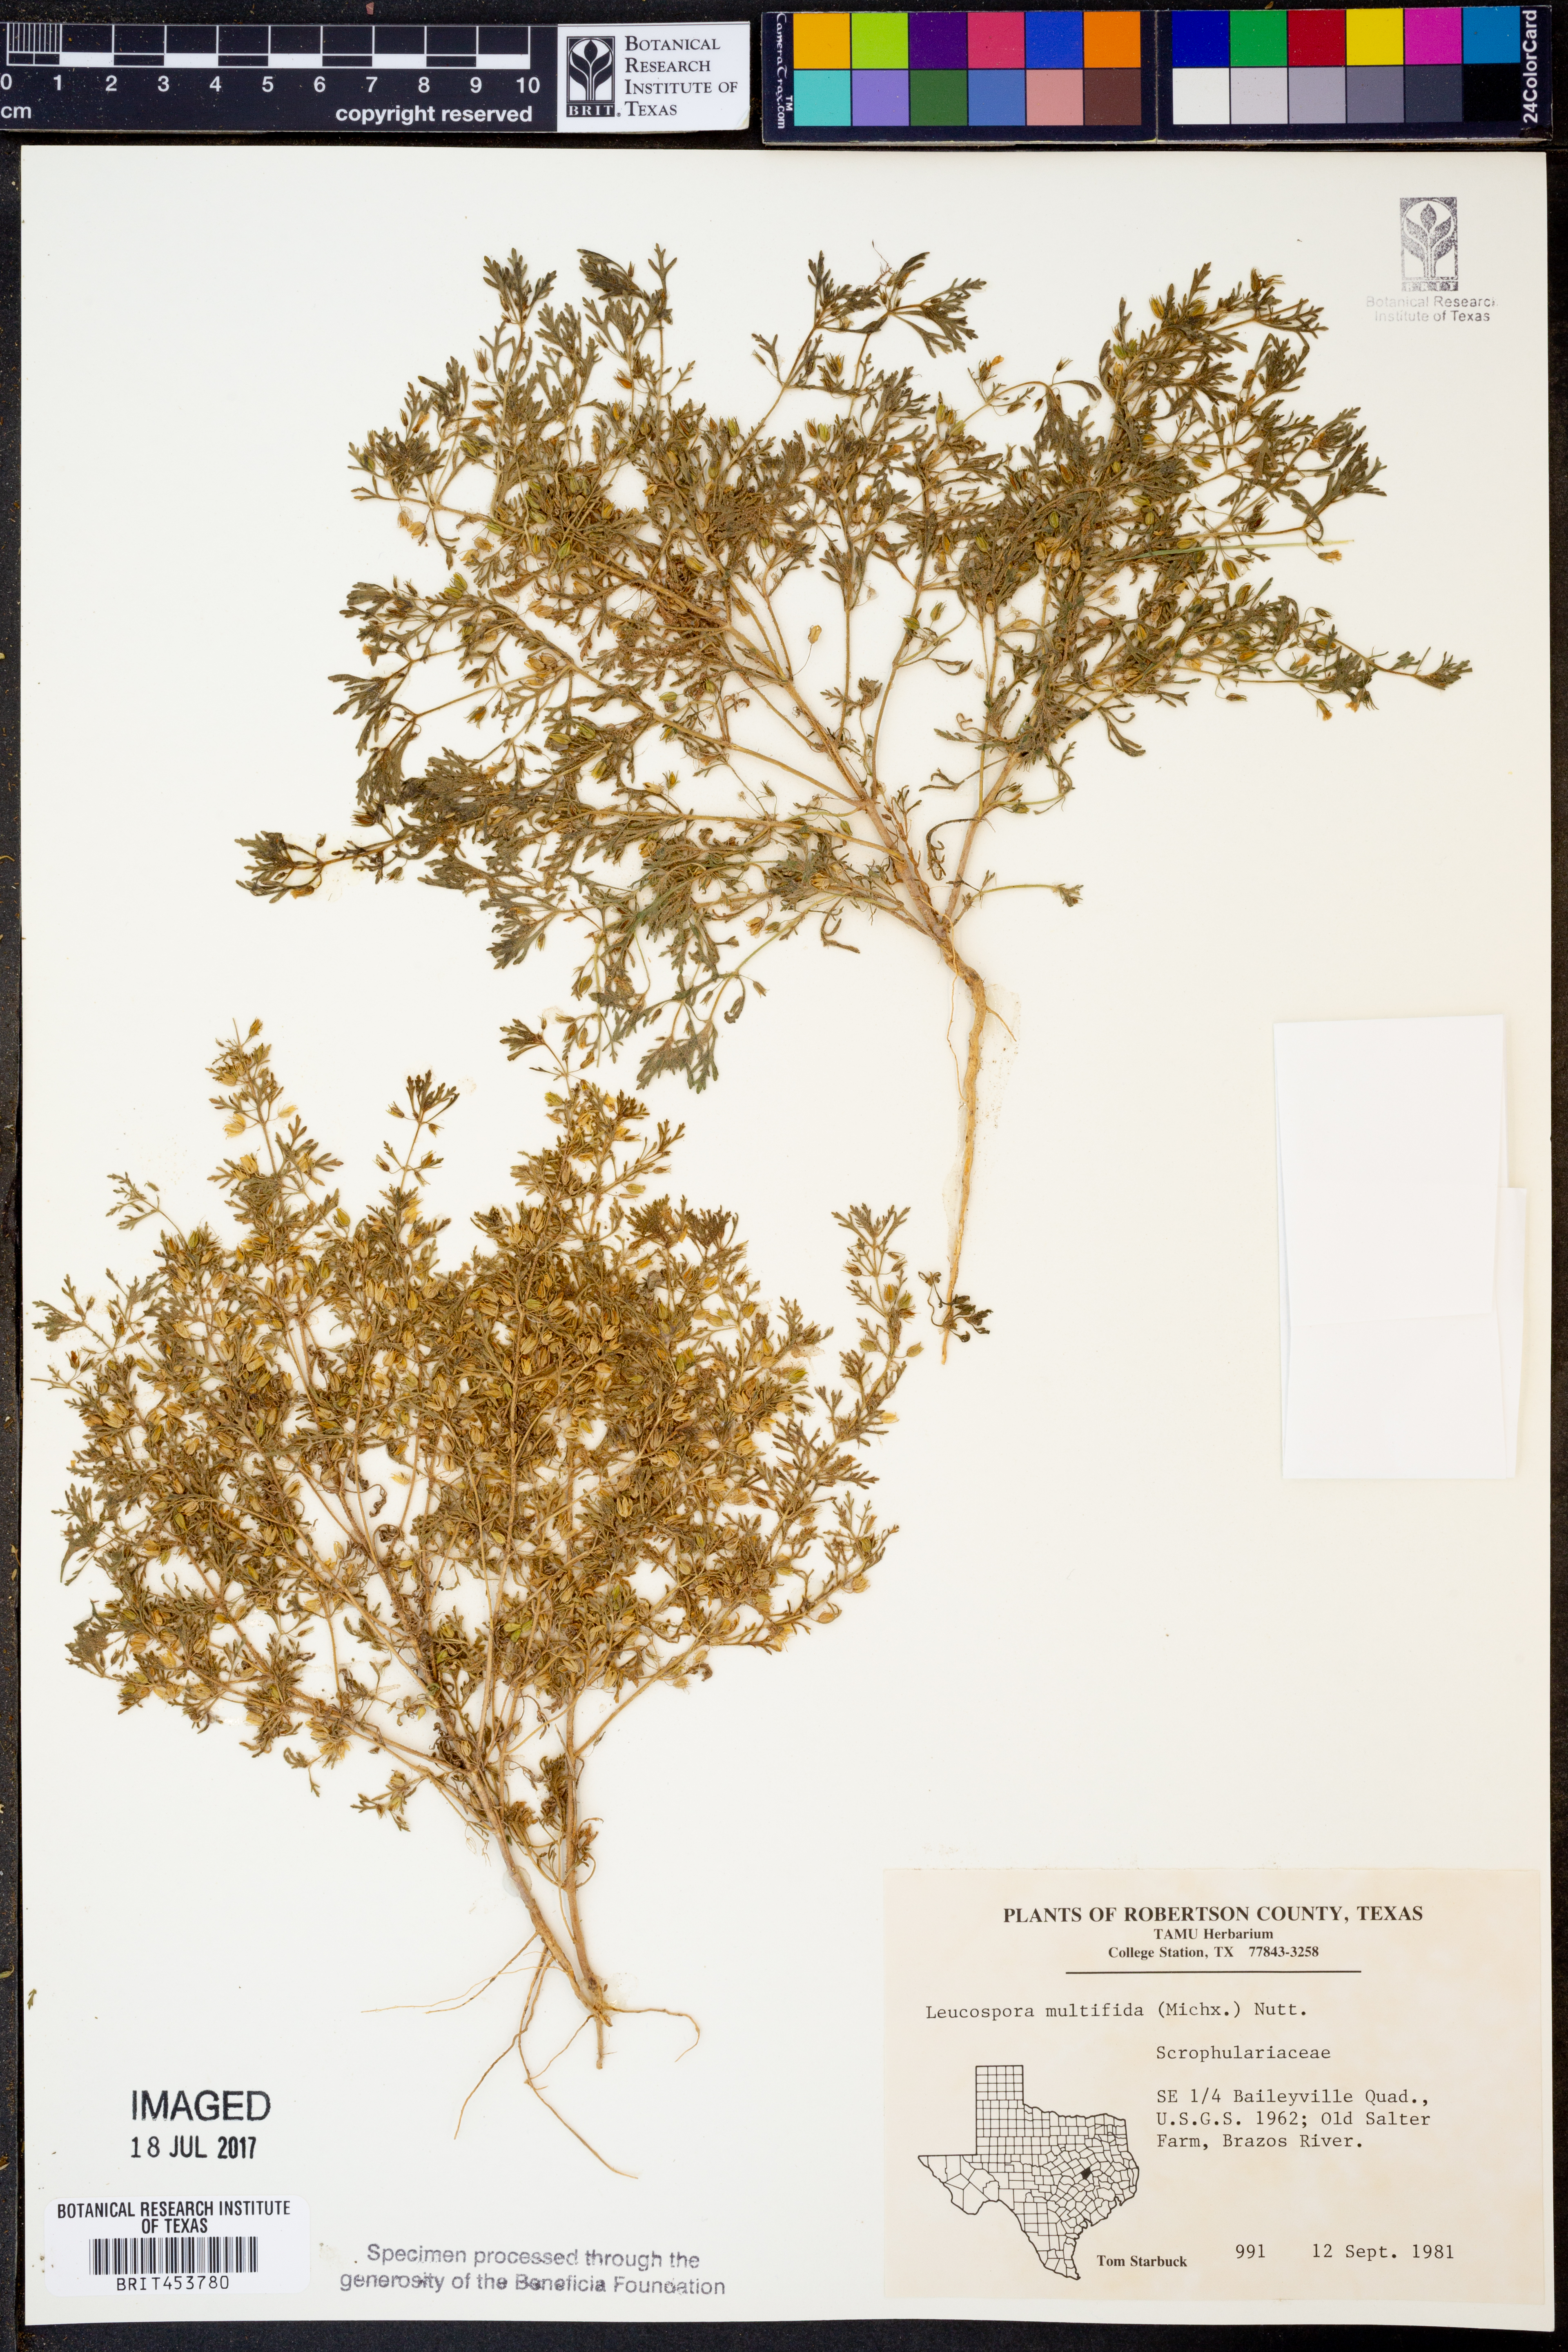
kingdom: Plantae
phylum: Tracheophyta
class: Magnoliopsida
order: Lamiales
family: Plantaginaceae
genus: Leucospora
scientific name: Leucospora multifida
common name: Narrow-leaf paleseed
